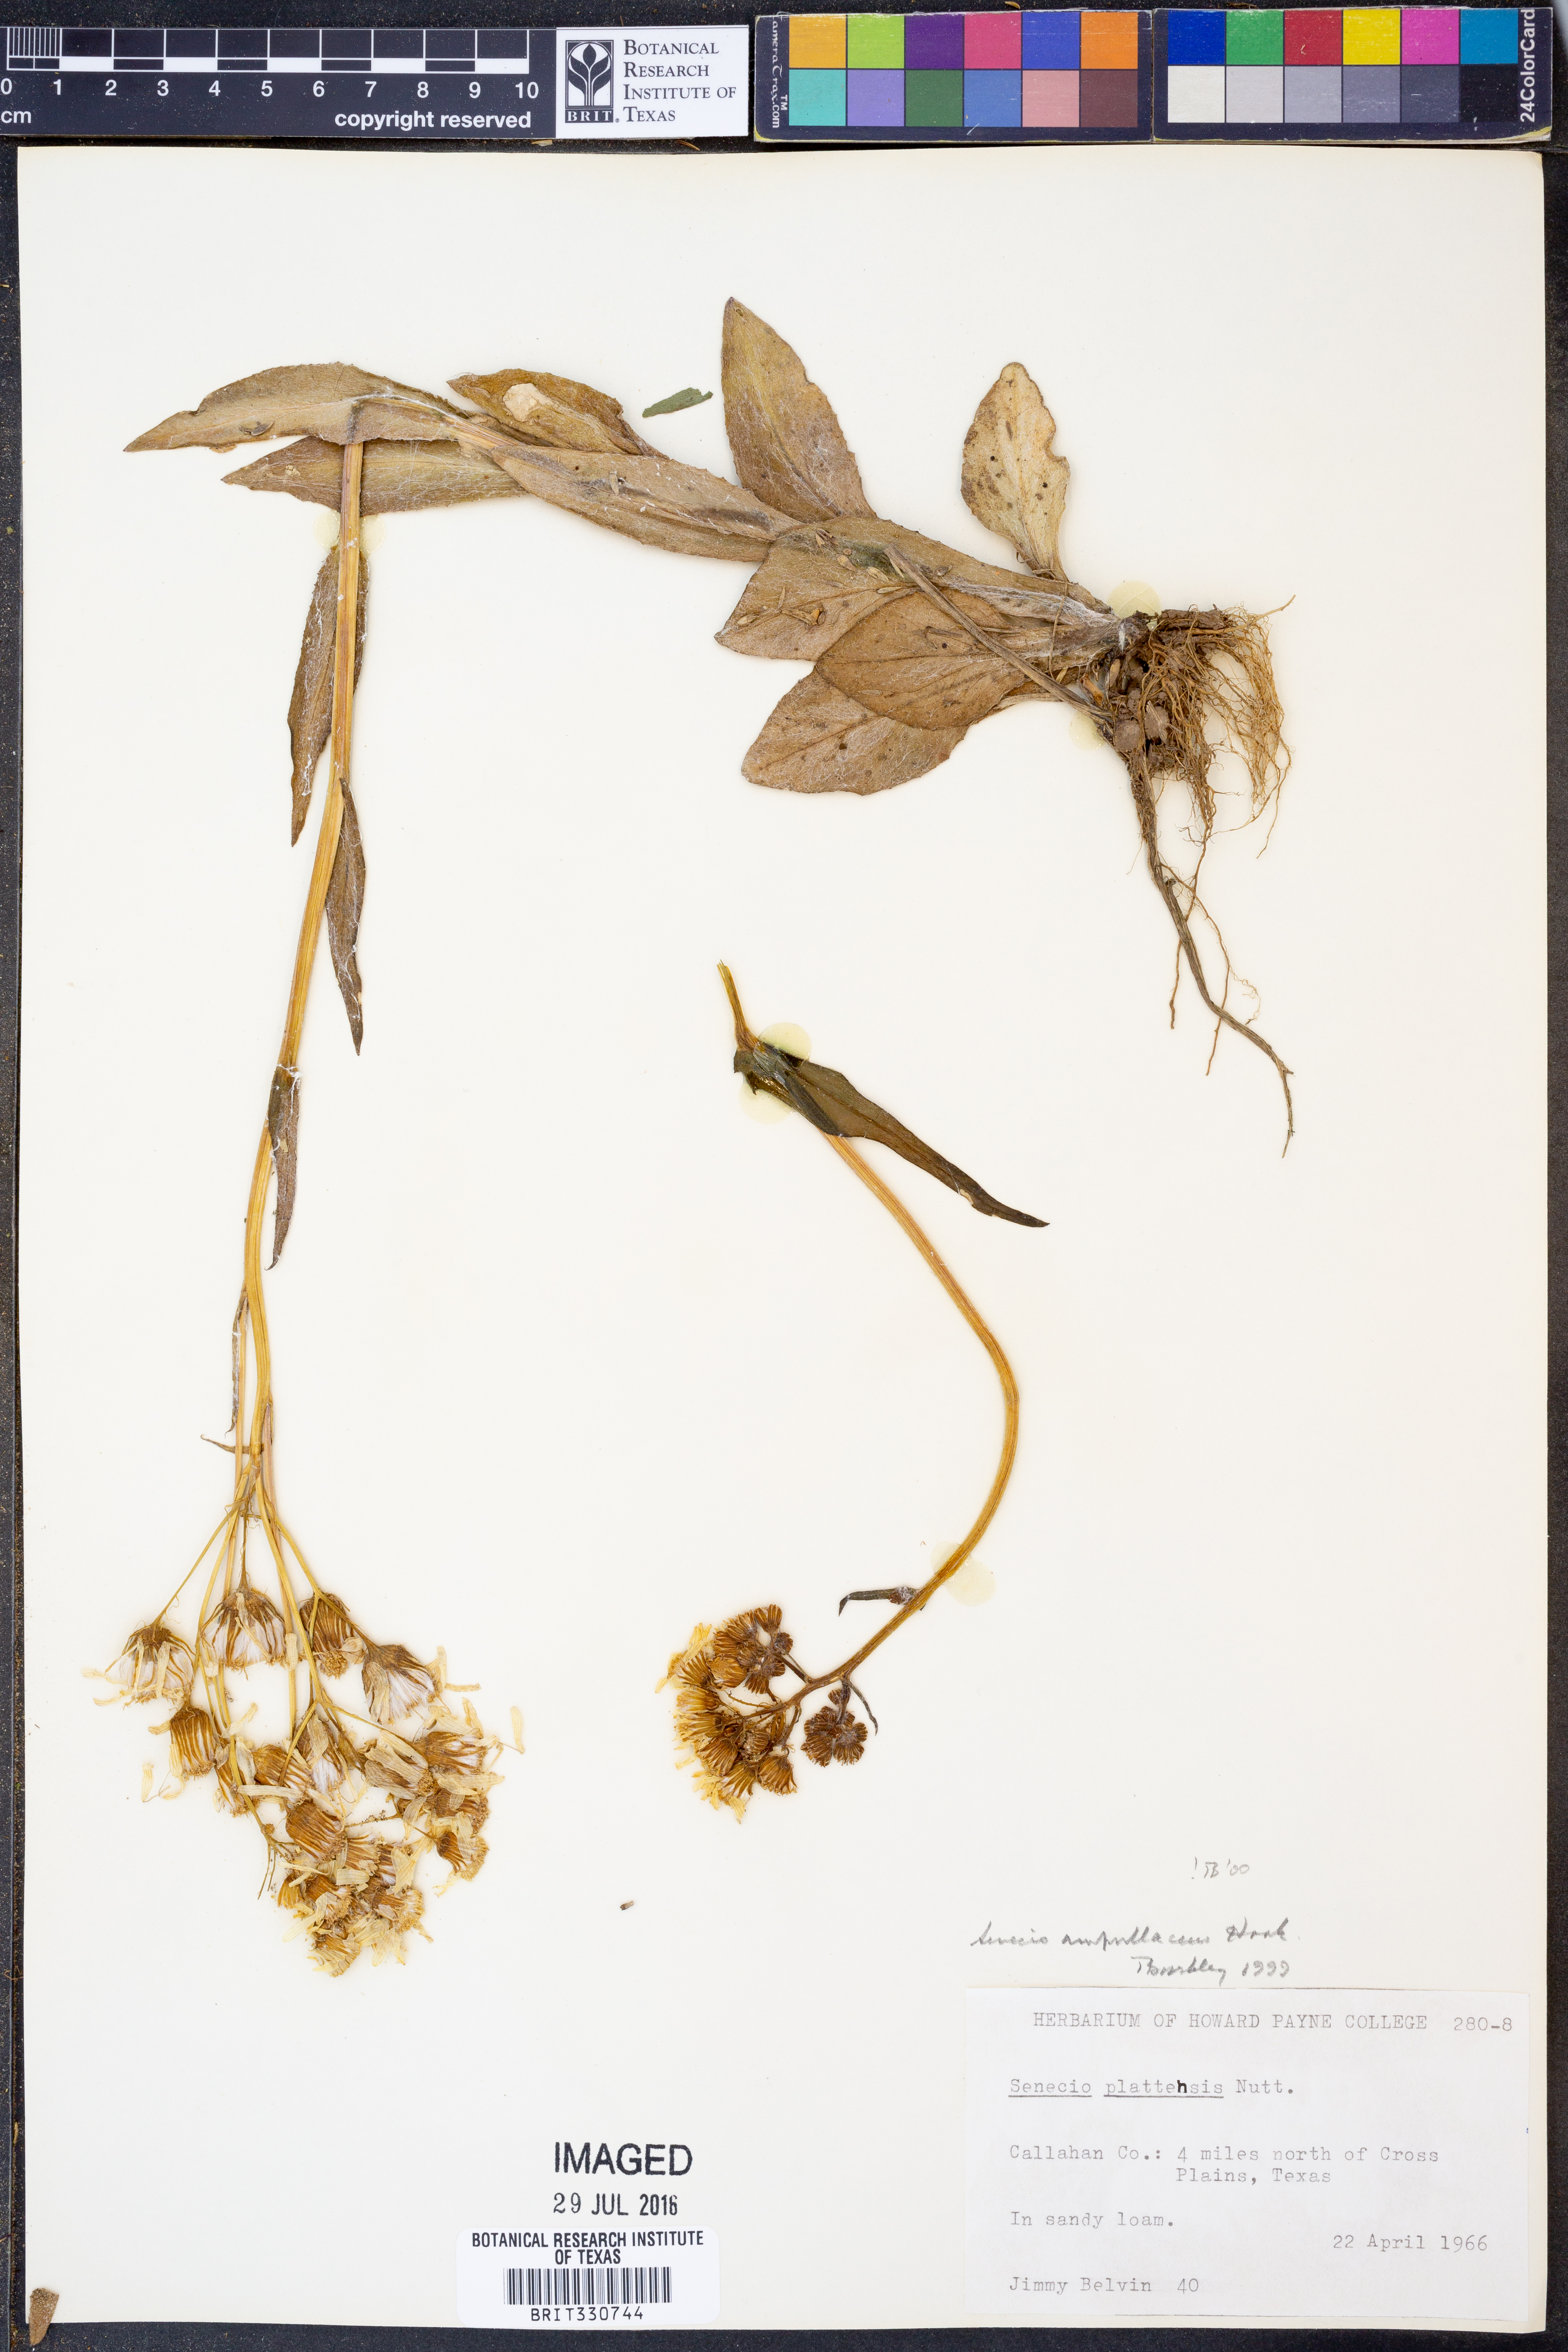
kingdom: Plantae
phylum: Tracheophyta
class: Magnoliopsida
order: Asterales
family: Asteraceae
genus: Senecio
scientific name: Senecio ampullaceus
